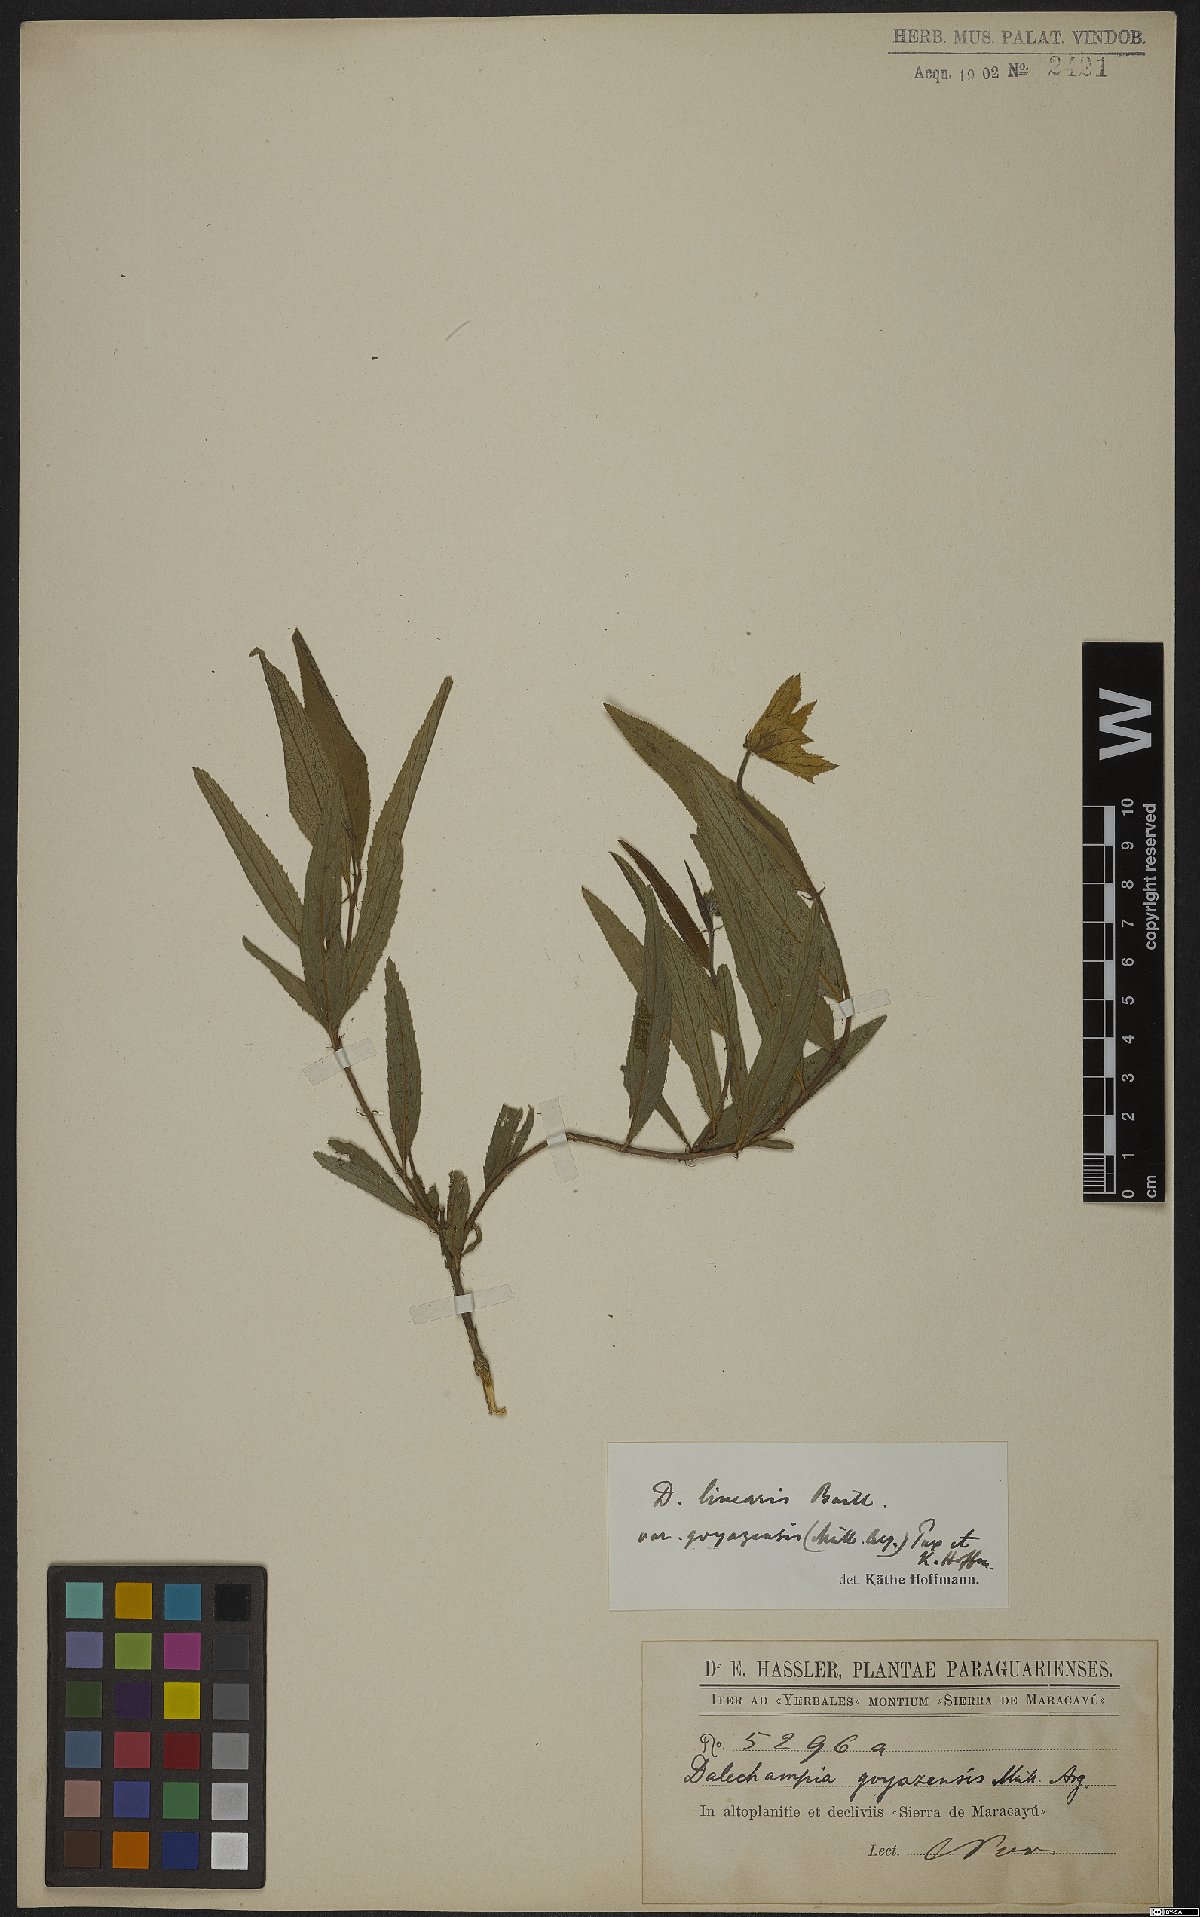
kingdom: Plantae
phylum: Tracheophyta
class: Magnoliopsida
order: Malpighiales
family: Euphorbiaceae
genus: Dalechampia
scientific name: Dalechampia linearis
